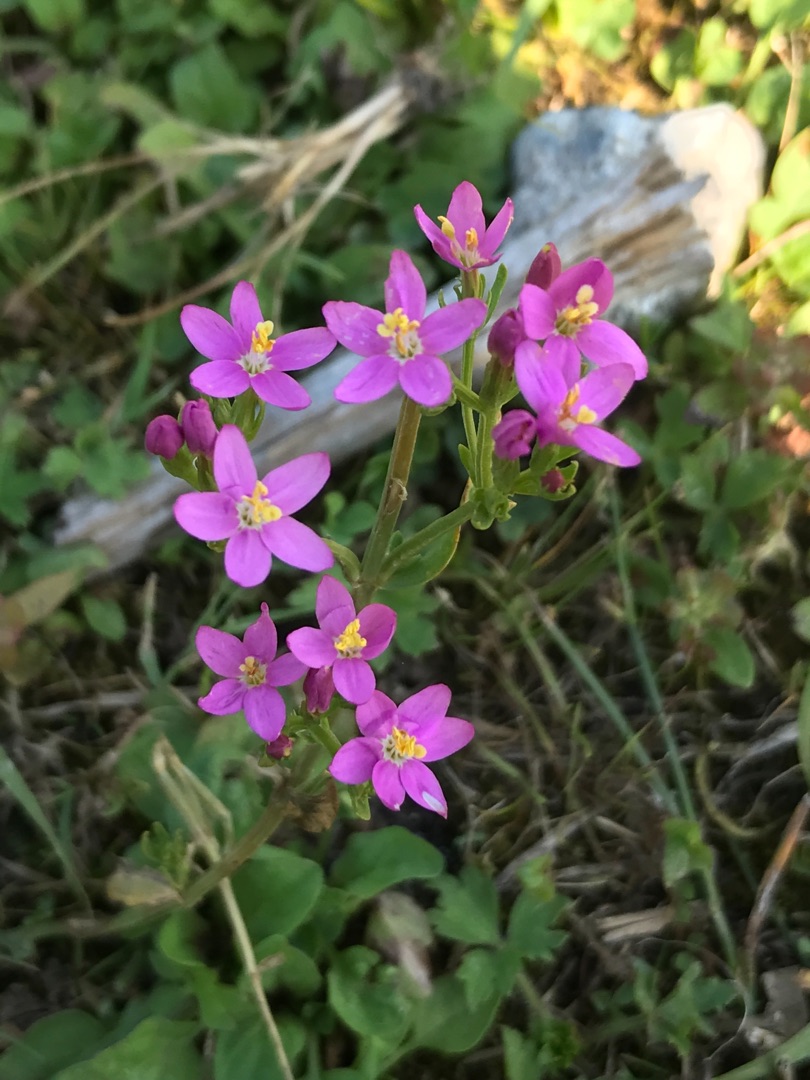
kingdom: Plantae
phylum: Tracheophyta
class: Magnoliopsida
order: Gentianales
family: Gentianaceae
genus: Centaurium
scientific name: Centaurium erythraea
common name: Mark-tusindgylden
